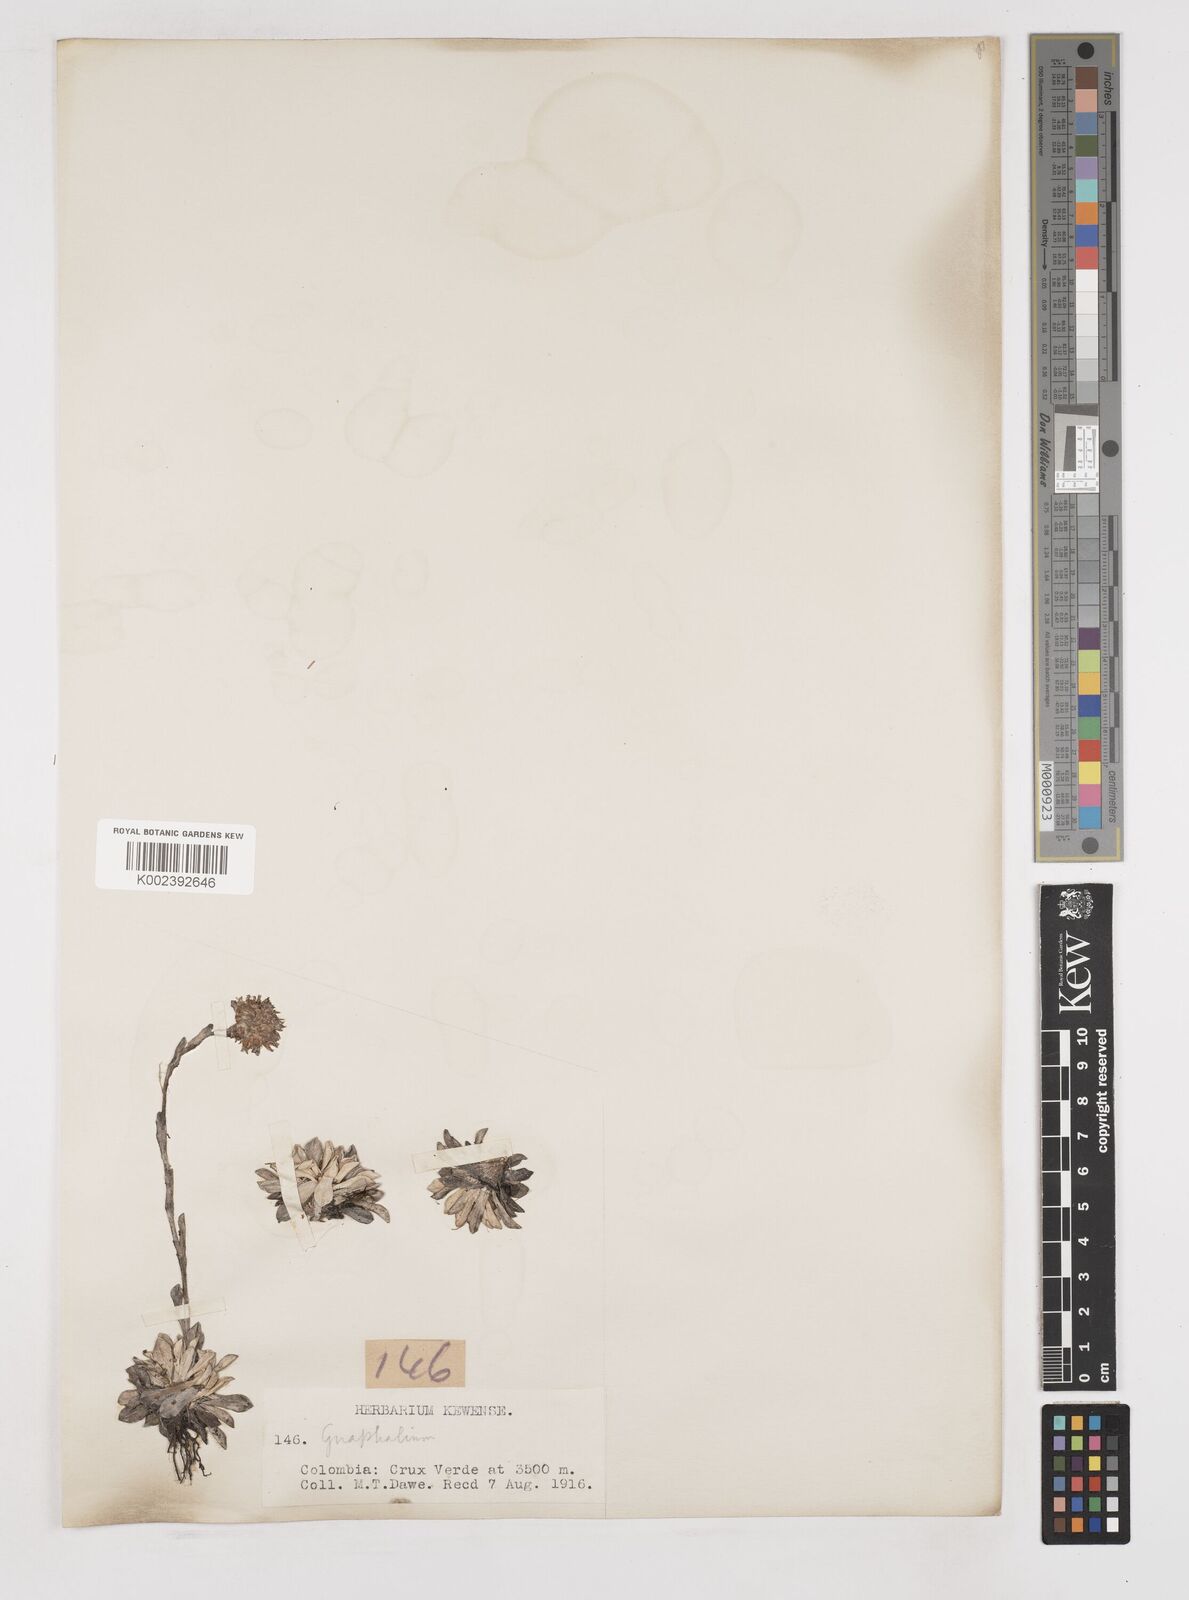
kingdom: Plantae
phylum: Tracheophyta
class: Magnoliopsida
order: Asterales
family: Asteraceae
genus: Gnaphalium
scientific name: Gnaphalium
